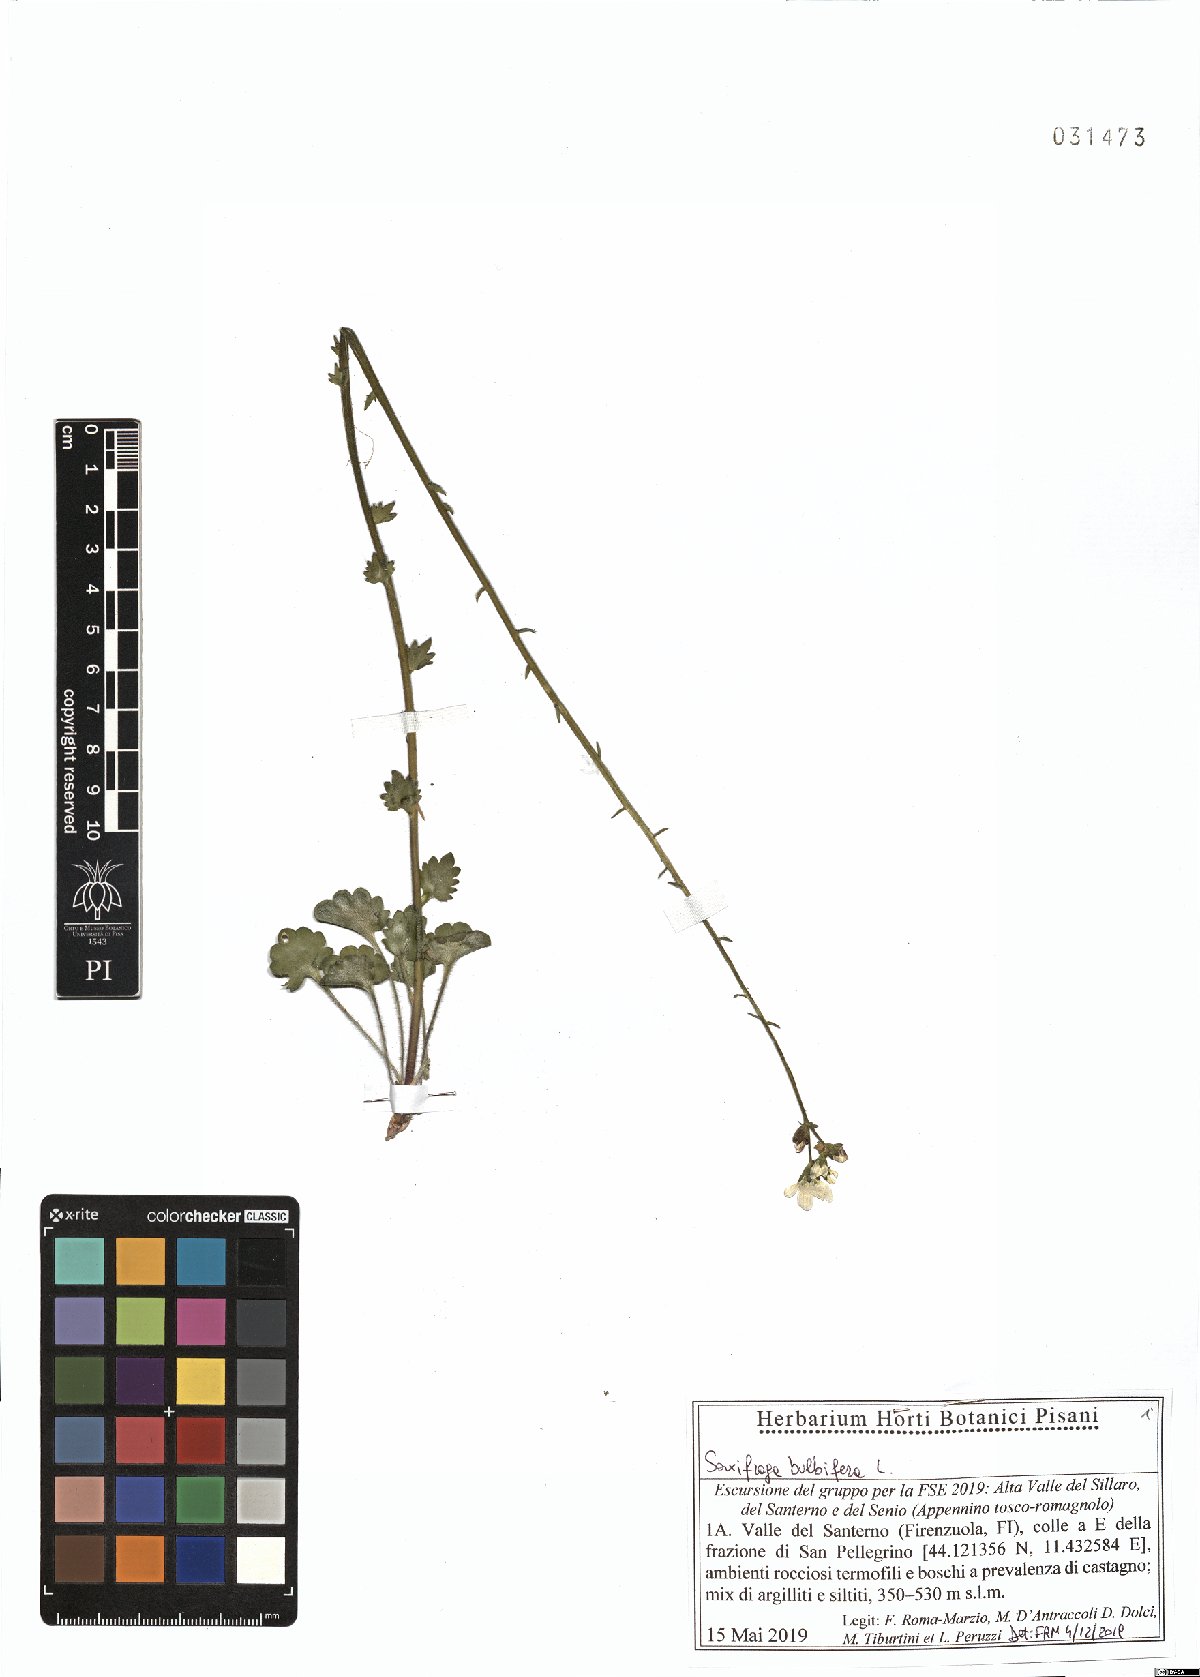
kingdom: Plantae
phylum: Tracheophyta
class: Magnoliopsida
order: Saxifragales
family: Saxifragaceae
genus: Saxifraga
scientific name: Saxifraga bulbifera
